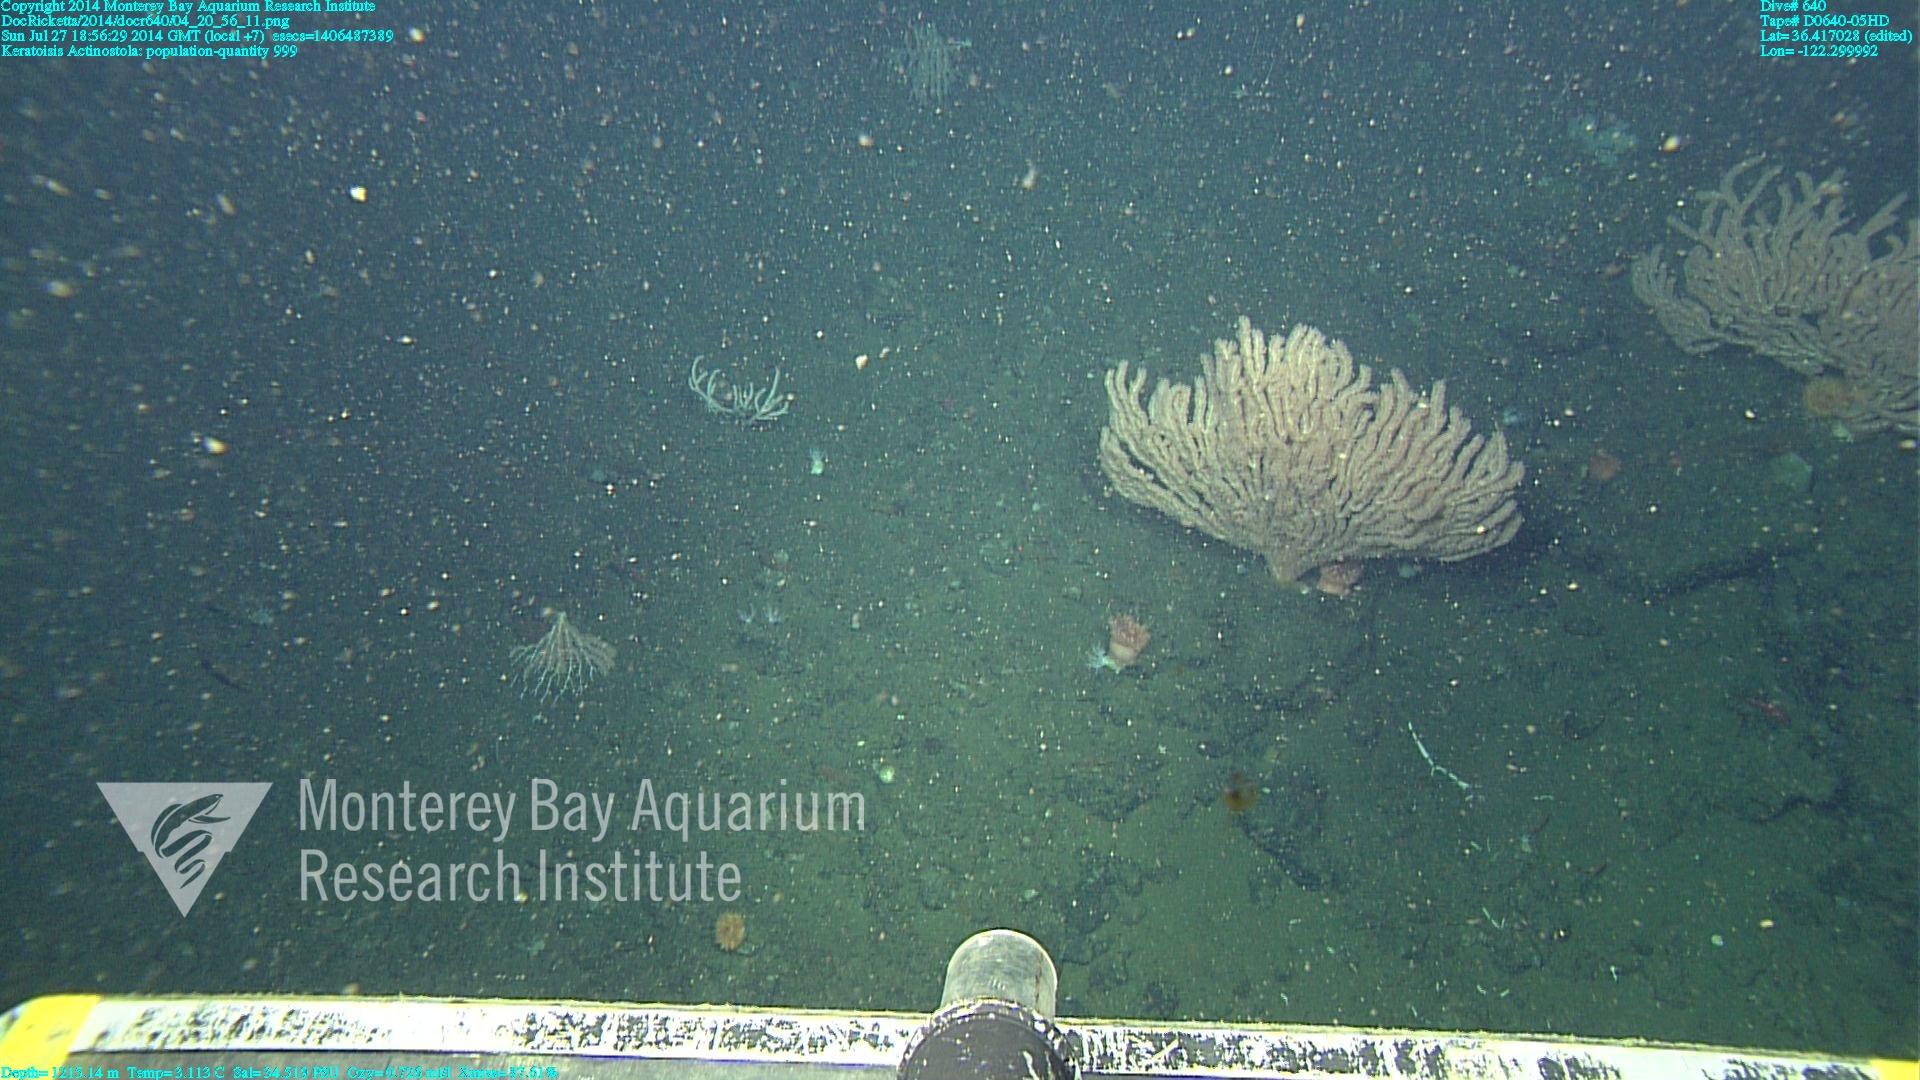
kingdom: Animalia
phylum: Cnidaria
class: Anthozoa
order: Scleralcyonacea
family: Keratoisididae
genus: Keratoisis
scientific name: Keratoisis
